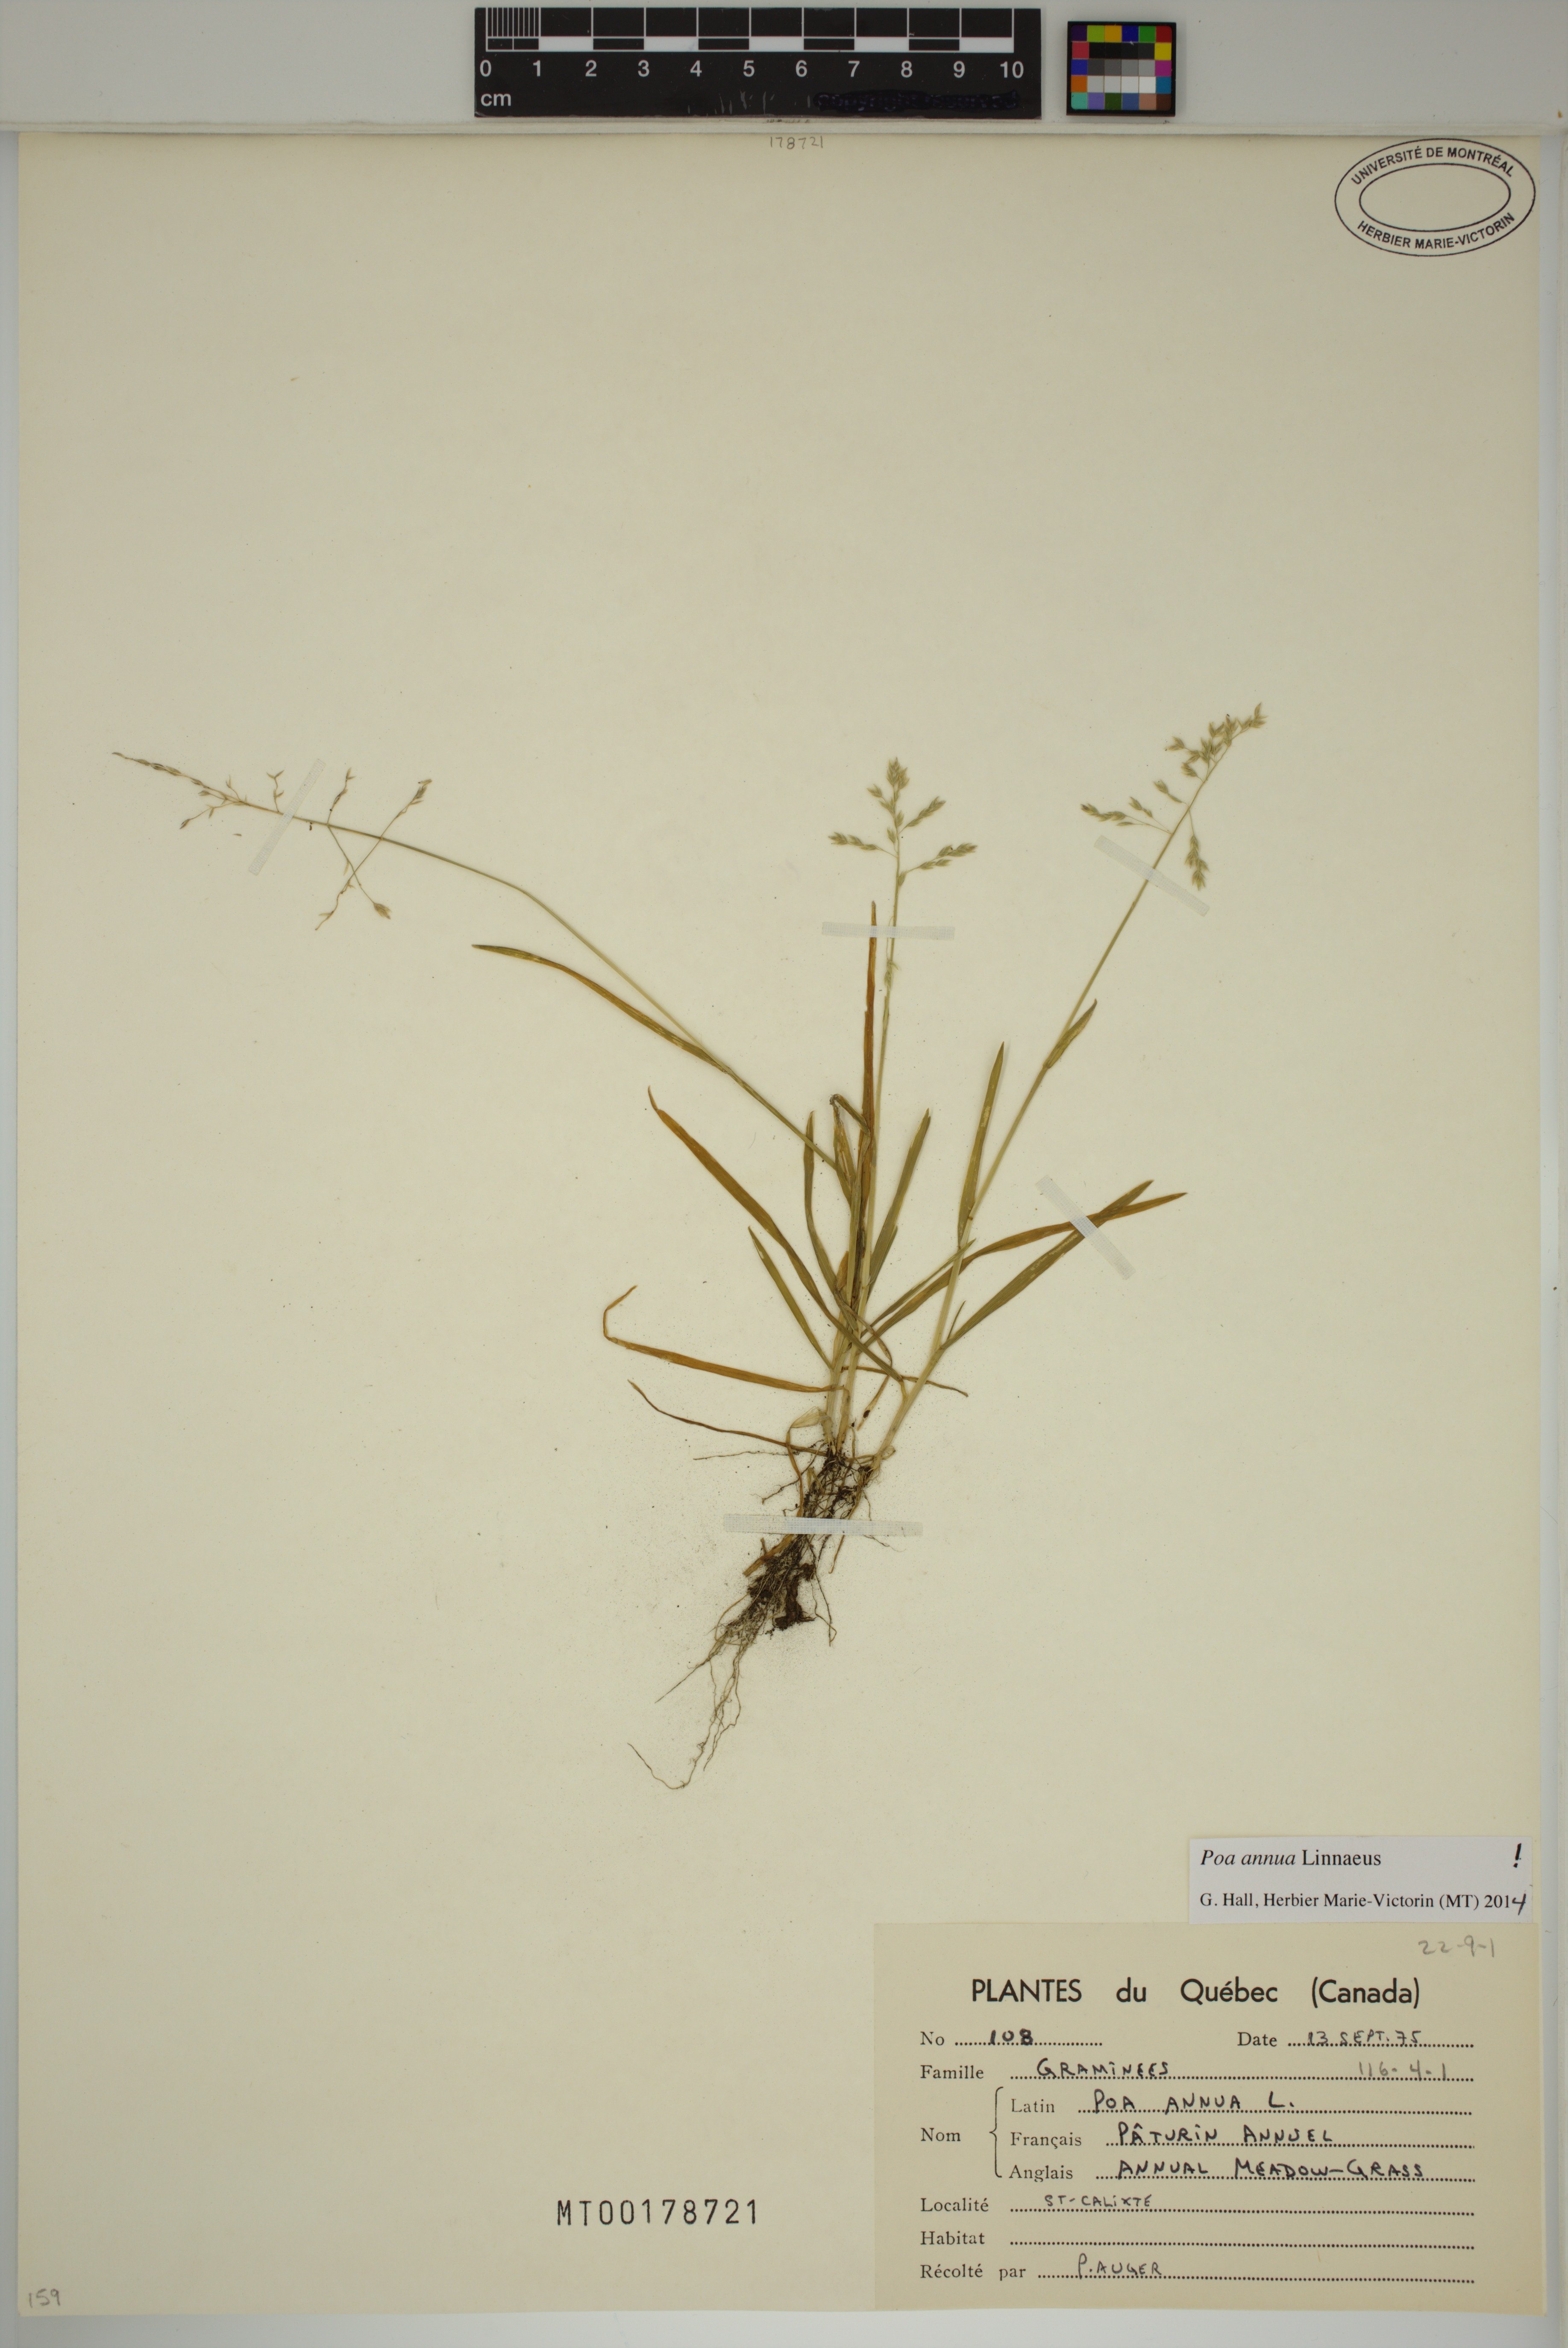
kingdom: Plantae
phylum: Tracheophyta
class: Liliopsida
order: Poales
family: Poaceae
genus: Poa
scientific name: Poa annua
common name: Annual bluegrass
